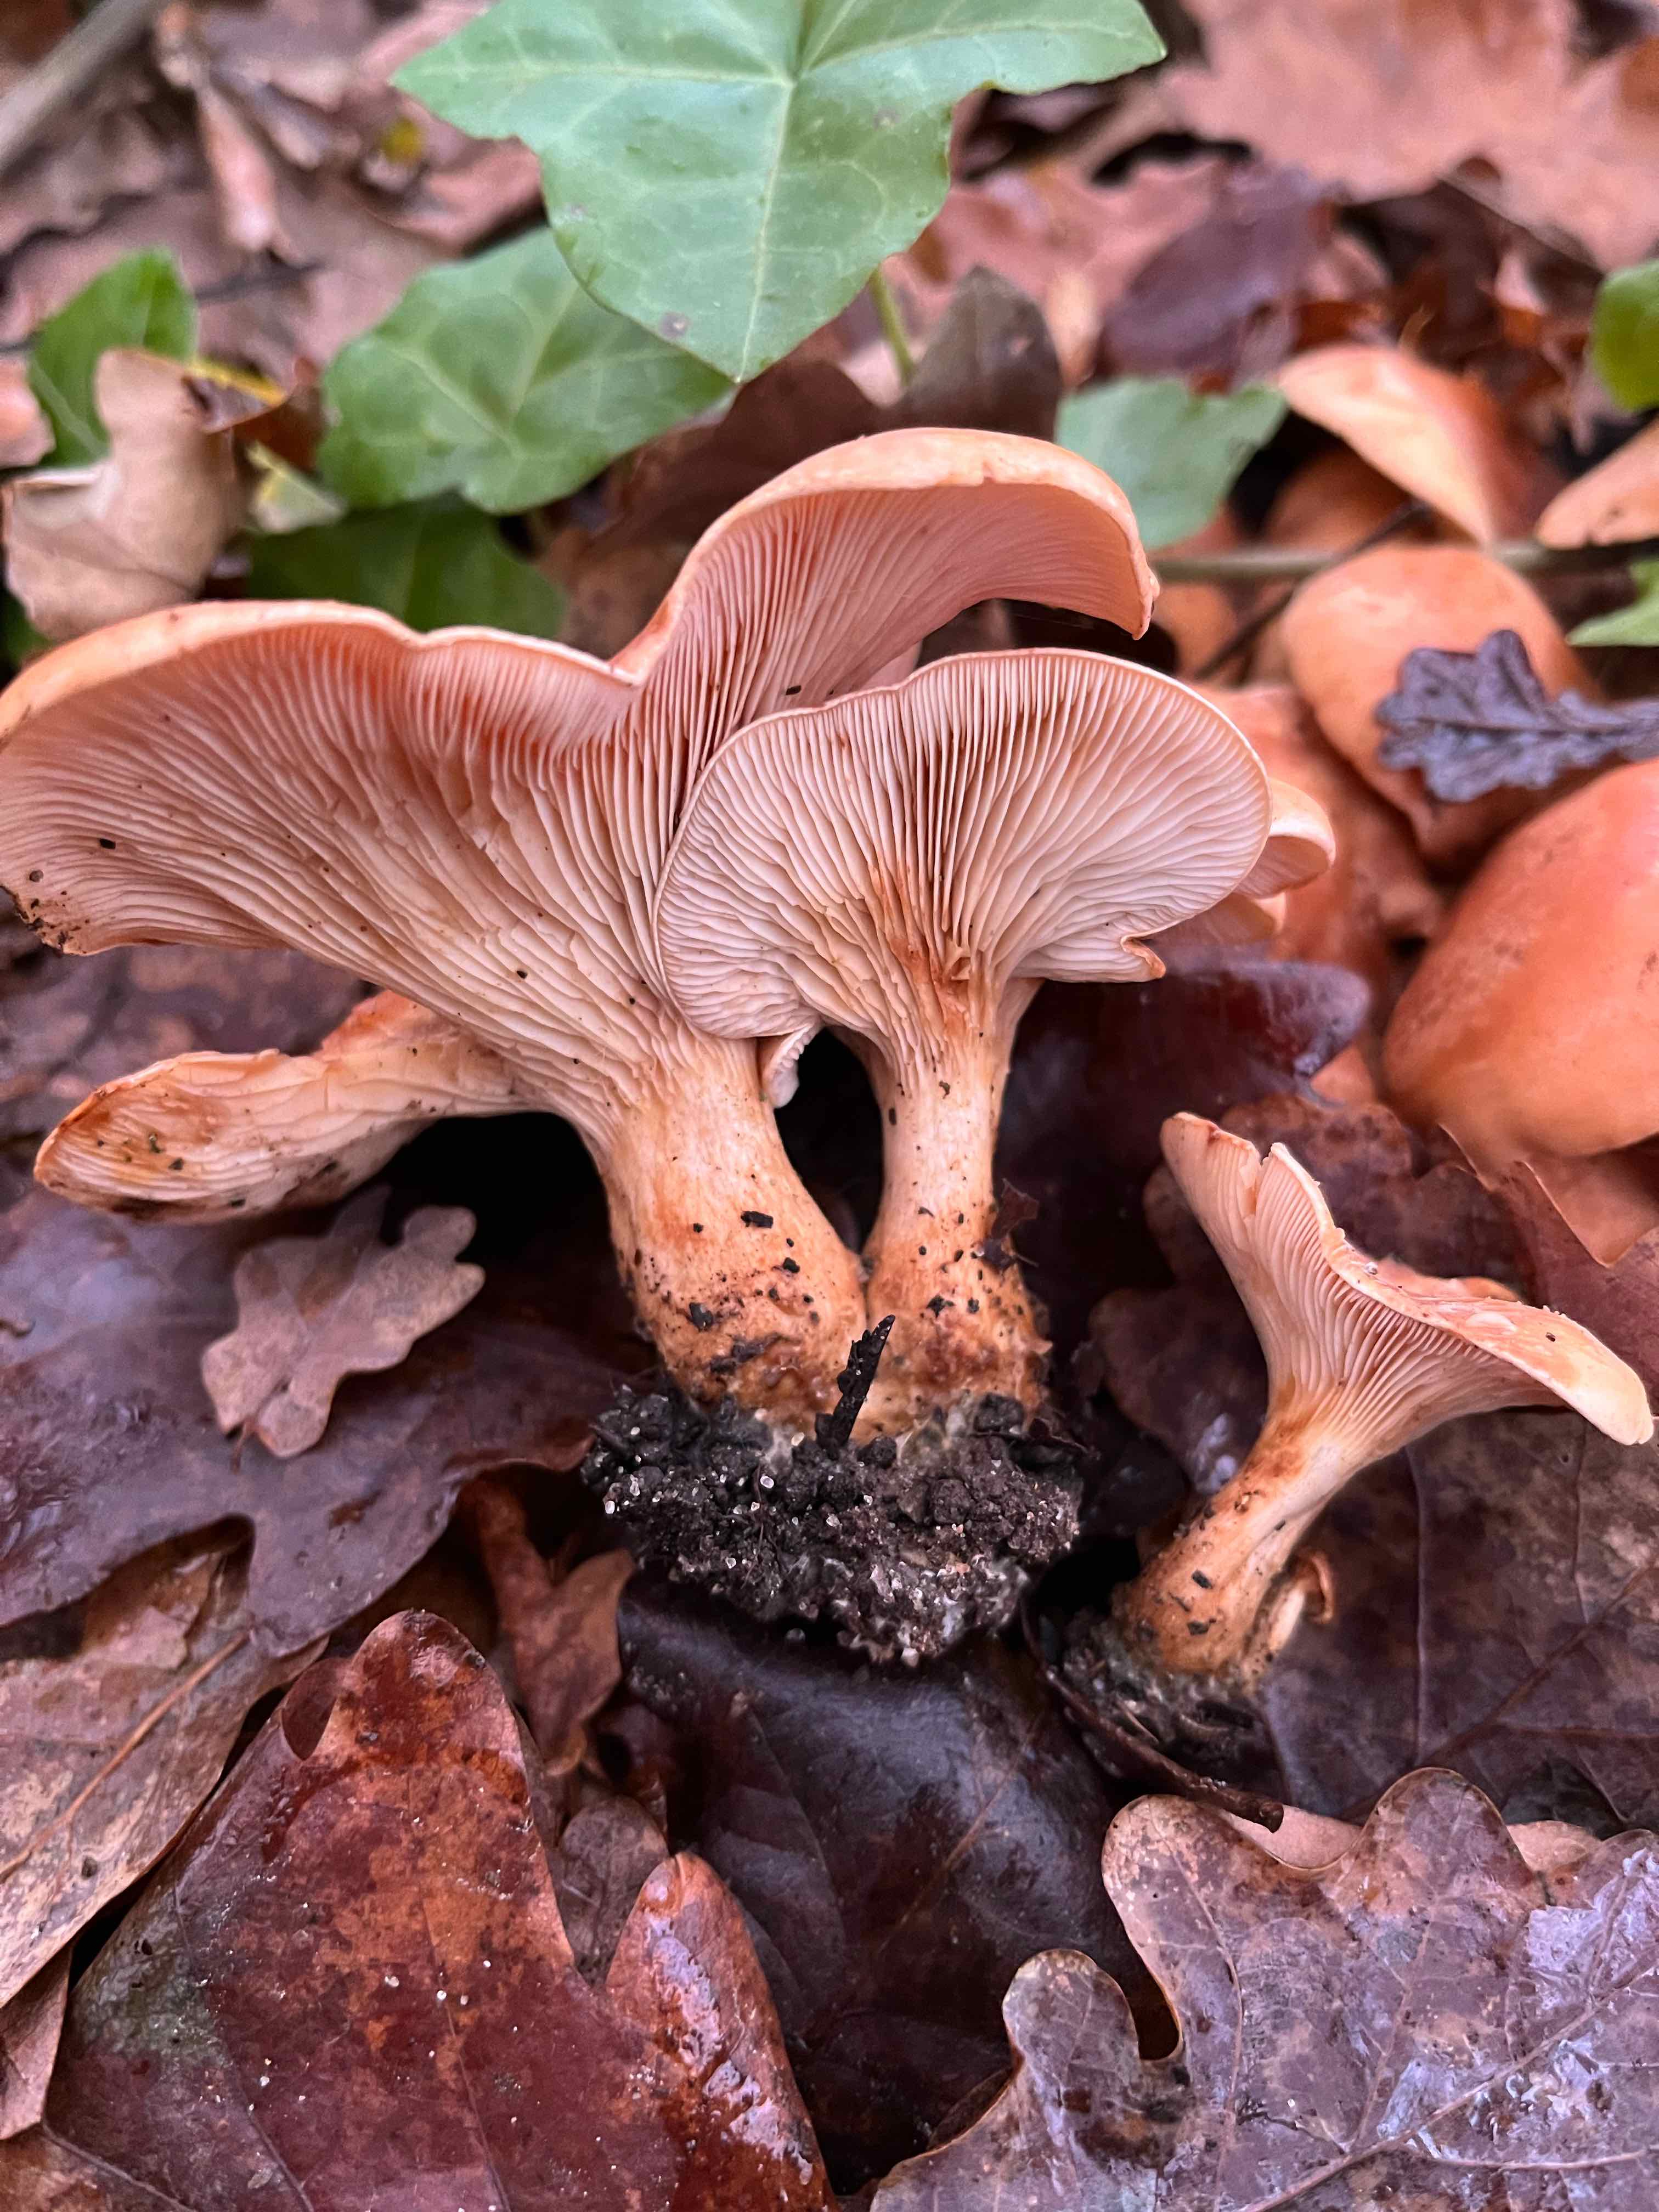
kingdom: Fungi
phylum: Basidiomycota
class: Agaricomycetes
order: Agaricales
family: Tricholomataceae
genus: Paralepista
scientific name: Paralepista flaccida
